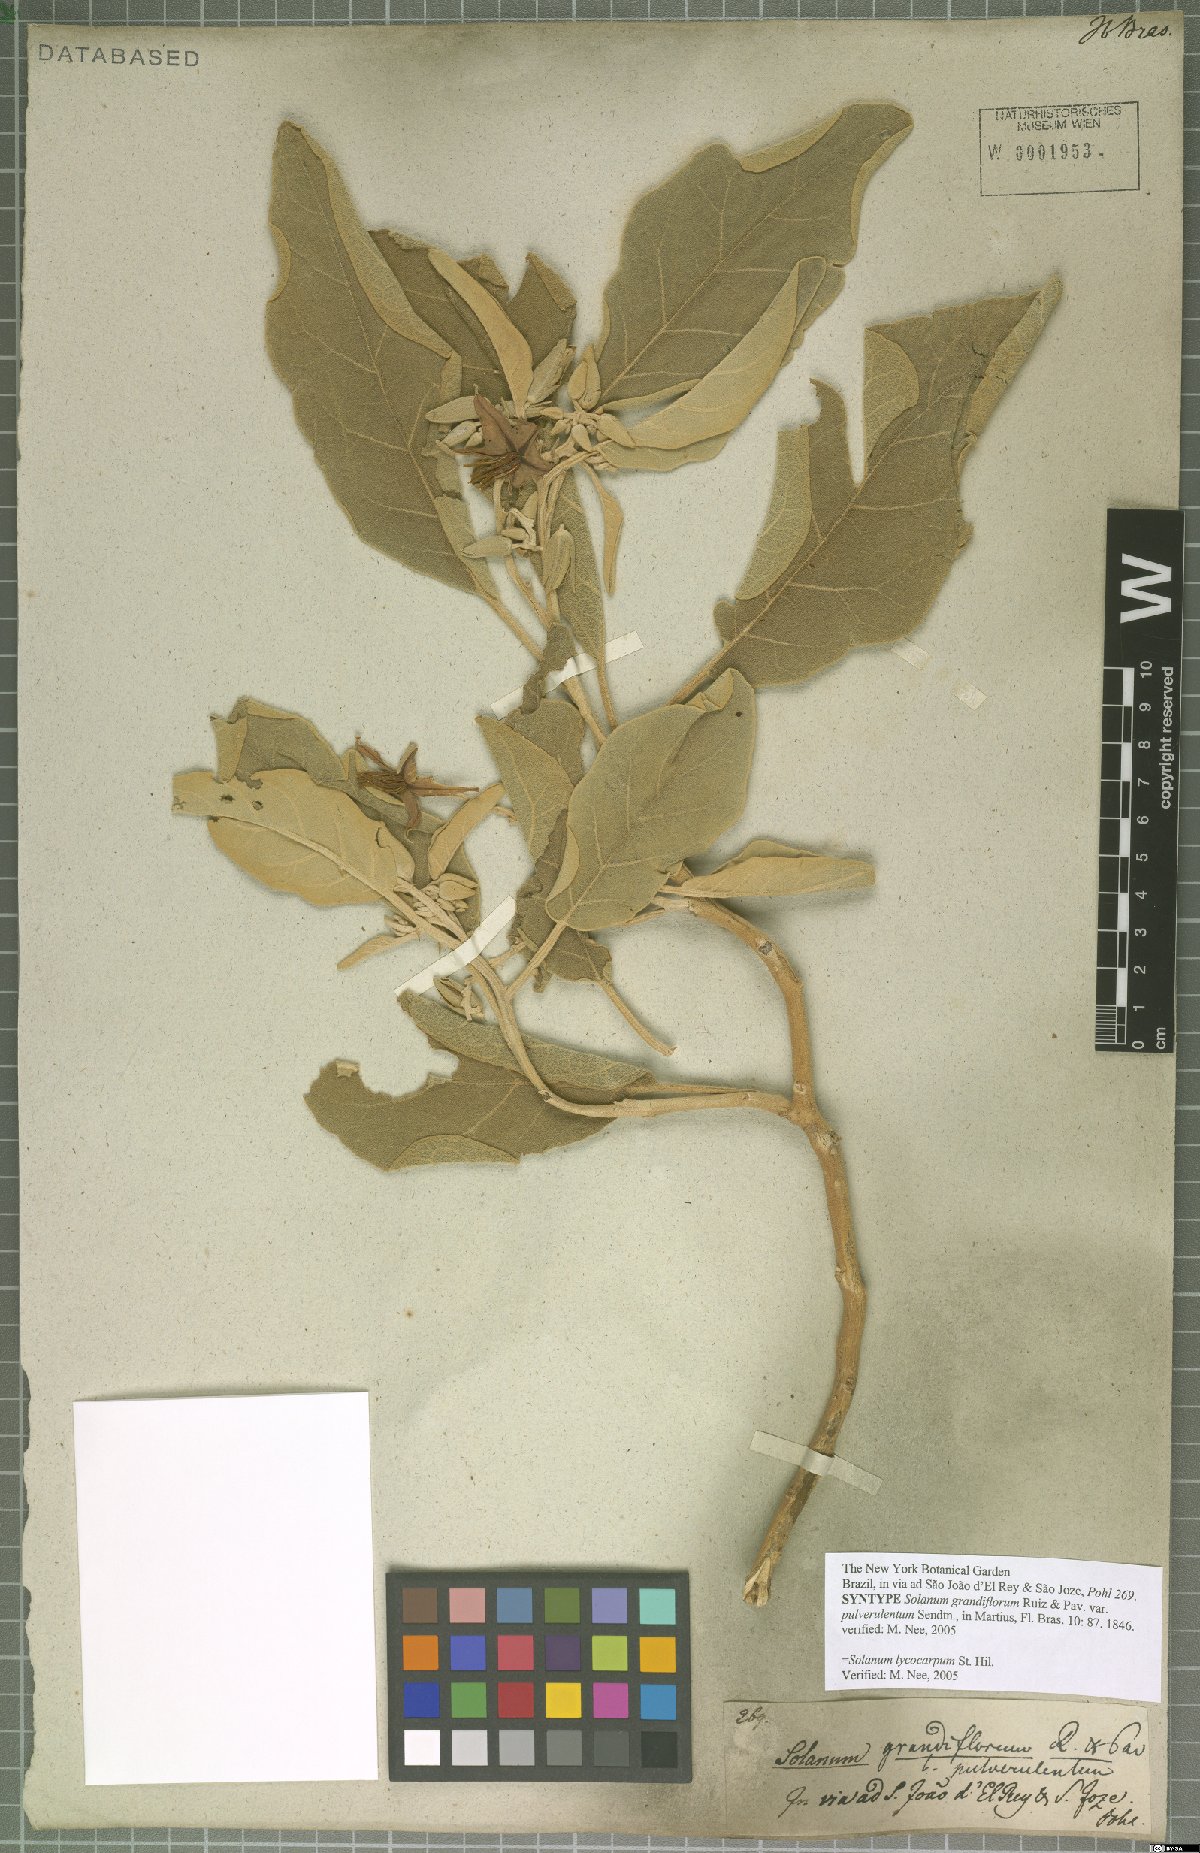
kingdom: Plantae
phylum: Tracheophyta
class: Magnoliopsida
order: Solanales
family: Solanaceae
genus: Solanum
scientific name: Solanum lycocarpum
